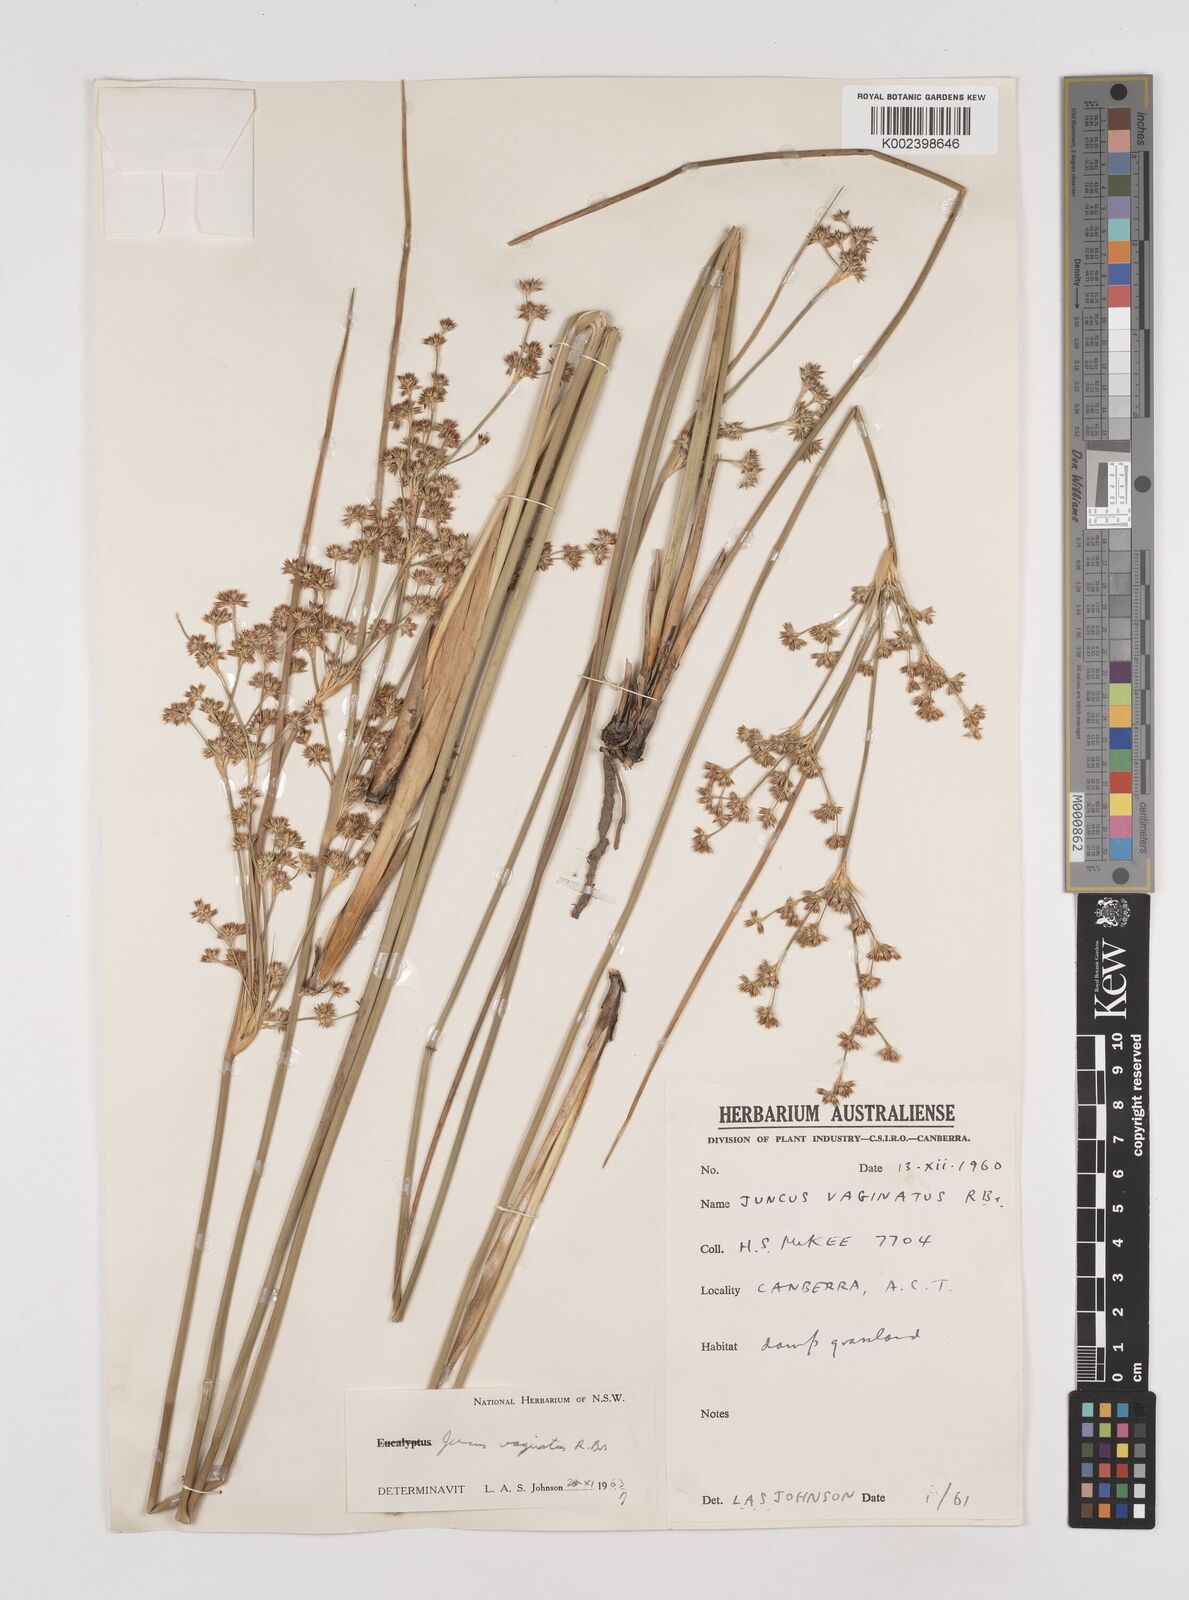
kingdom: Plantae
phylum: Tracheophyta
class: Liliopsida
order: Poales
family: Juncaceae
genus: Juncus
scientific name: Juncus vaginatus
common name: Clustered rush
